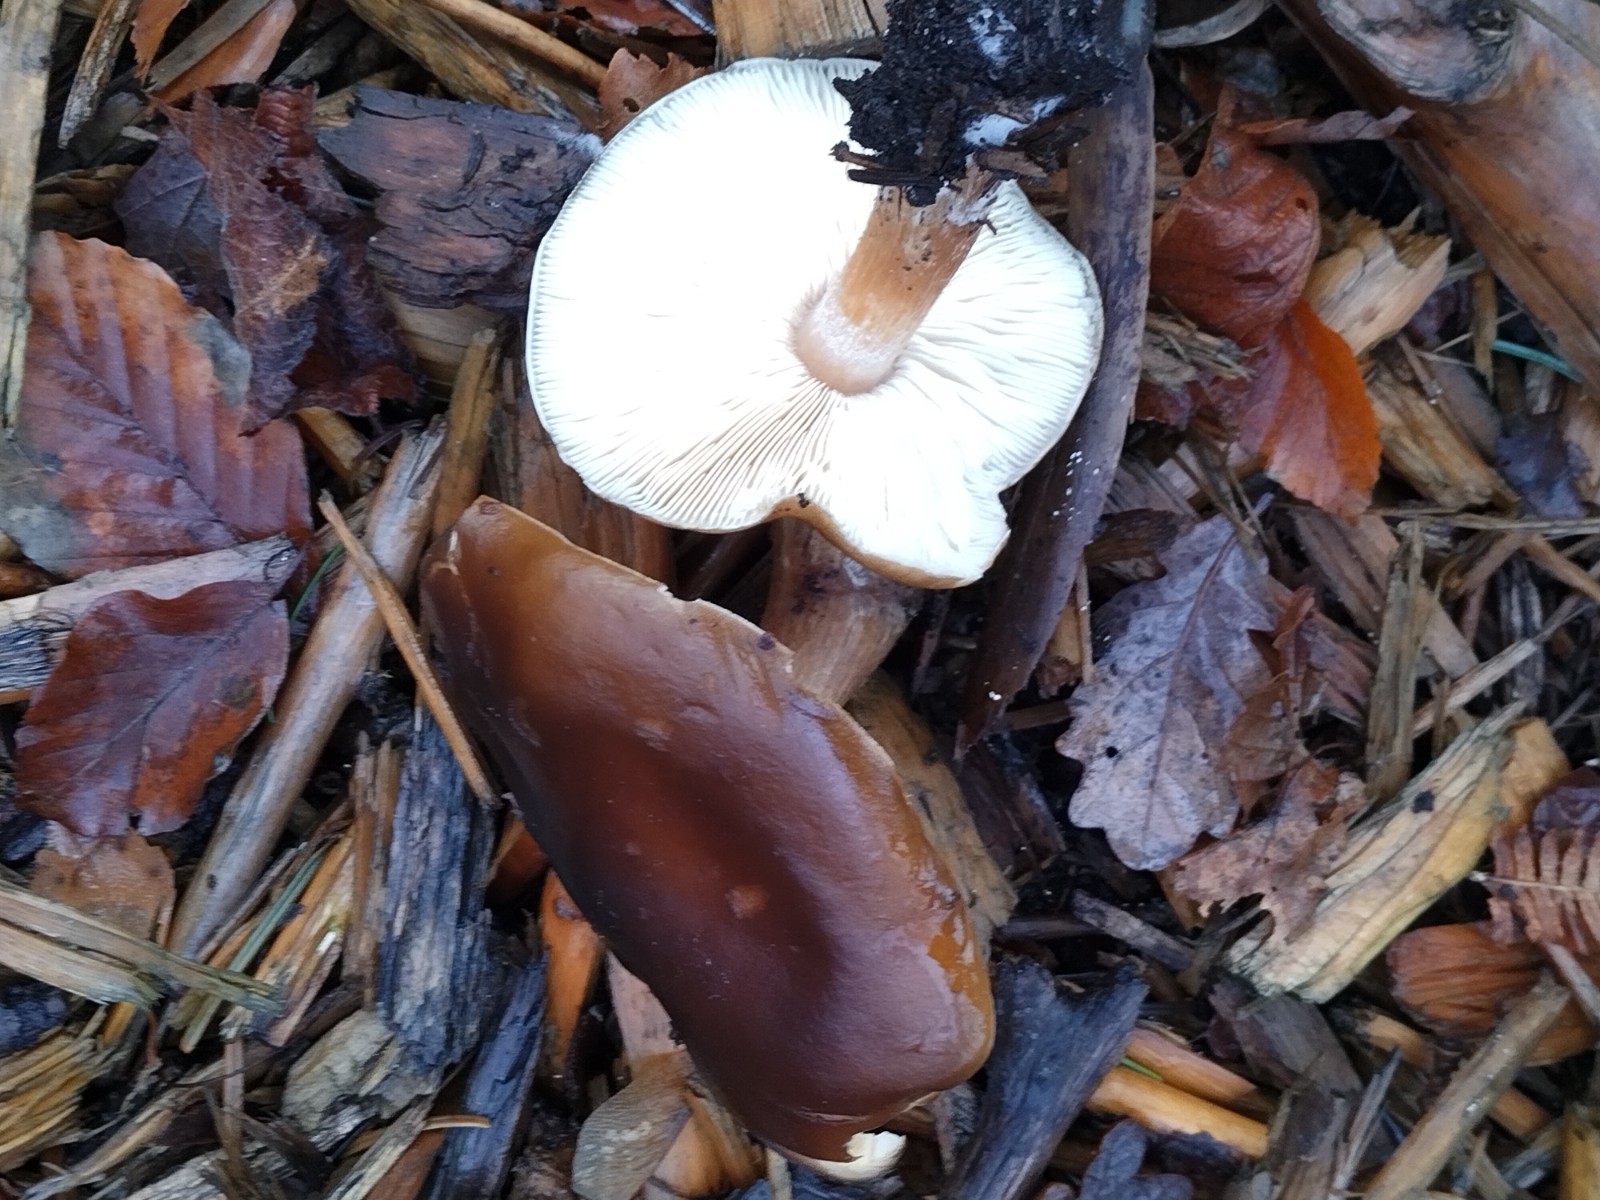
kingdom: Fungi
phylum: Basidiomycota
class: Agaricomycetes
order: Agaricales
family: Tricholomataceae
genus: Melanoleuca
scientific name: Melanoleuca
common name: munkehat
